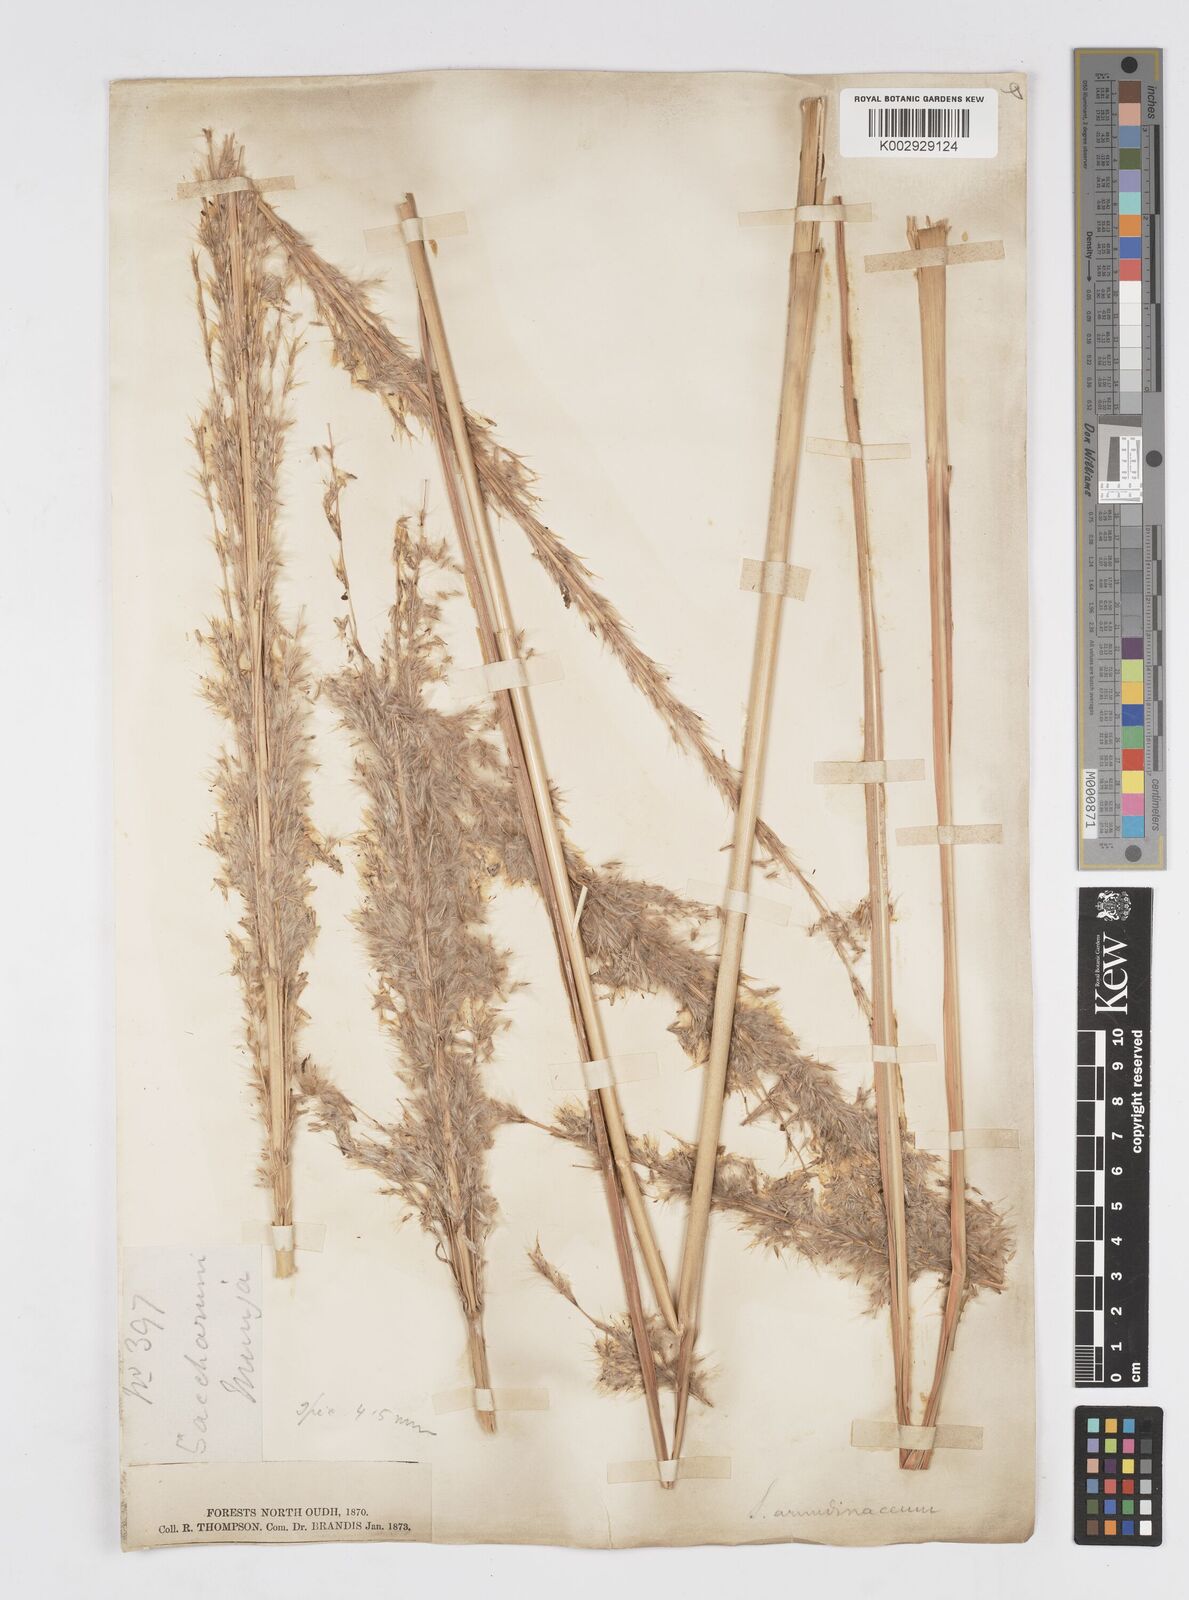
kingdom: Plantae
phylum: Tracheophyta
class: Liliopsida
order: Poales
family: Poaceae
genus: Tripidium
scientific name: Tripidium bengalense
